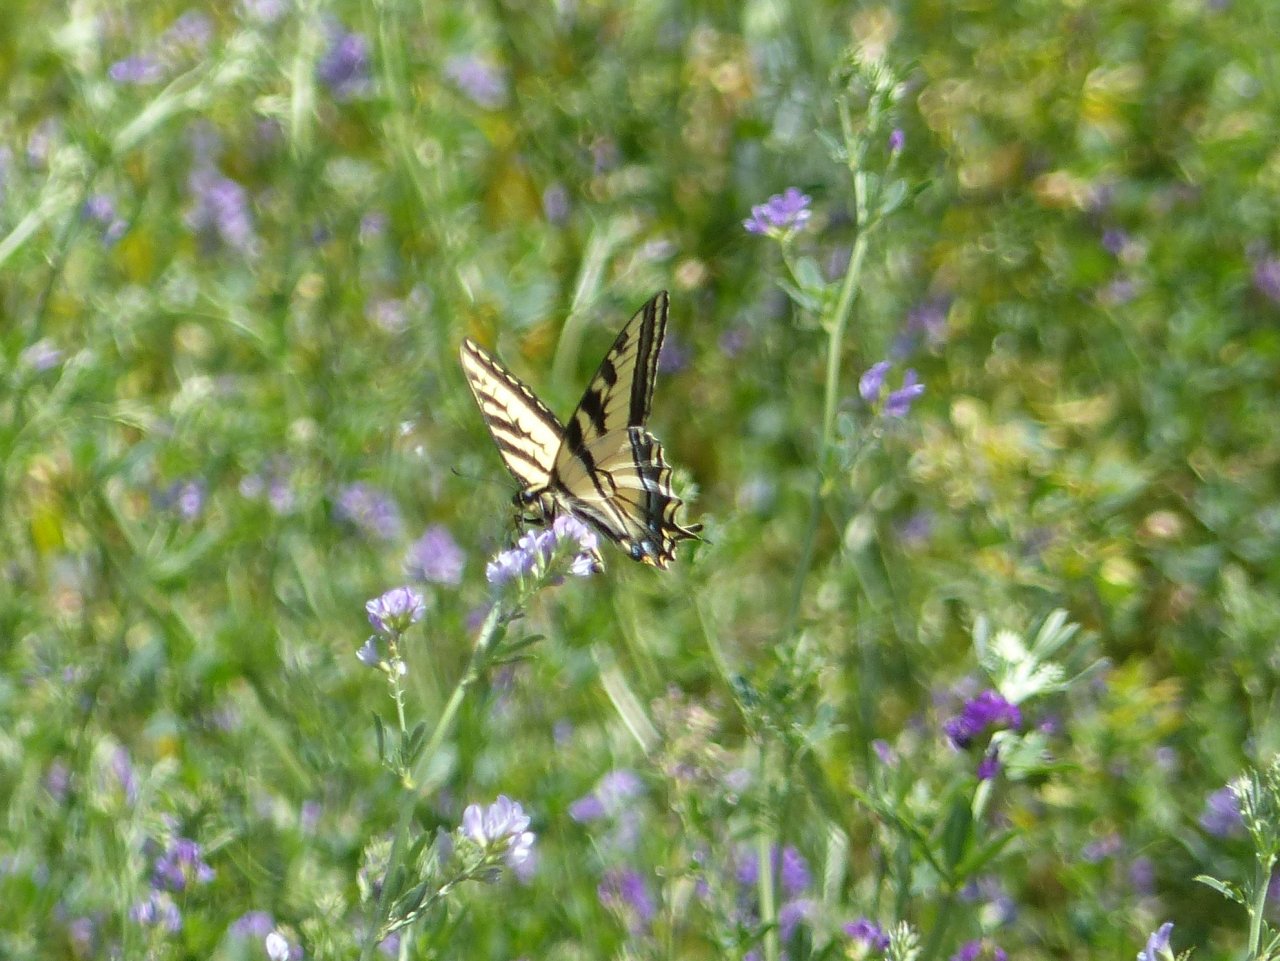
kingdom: Animalia
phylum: Arthropoda
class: Insecta
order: Lepidoptera
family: Papilionidae
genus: Pterourus
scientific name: Pterourus rutulus
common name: Western Tiger Swallowtail
